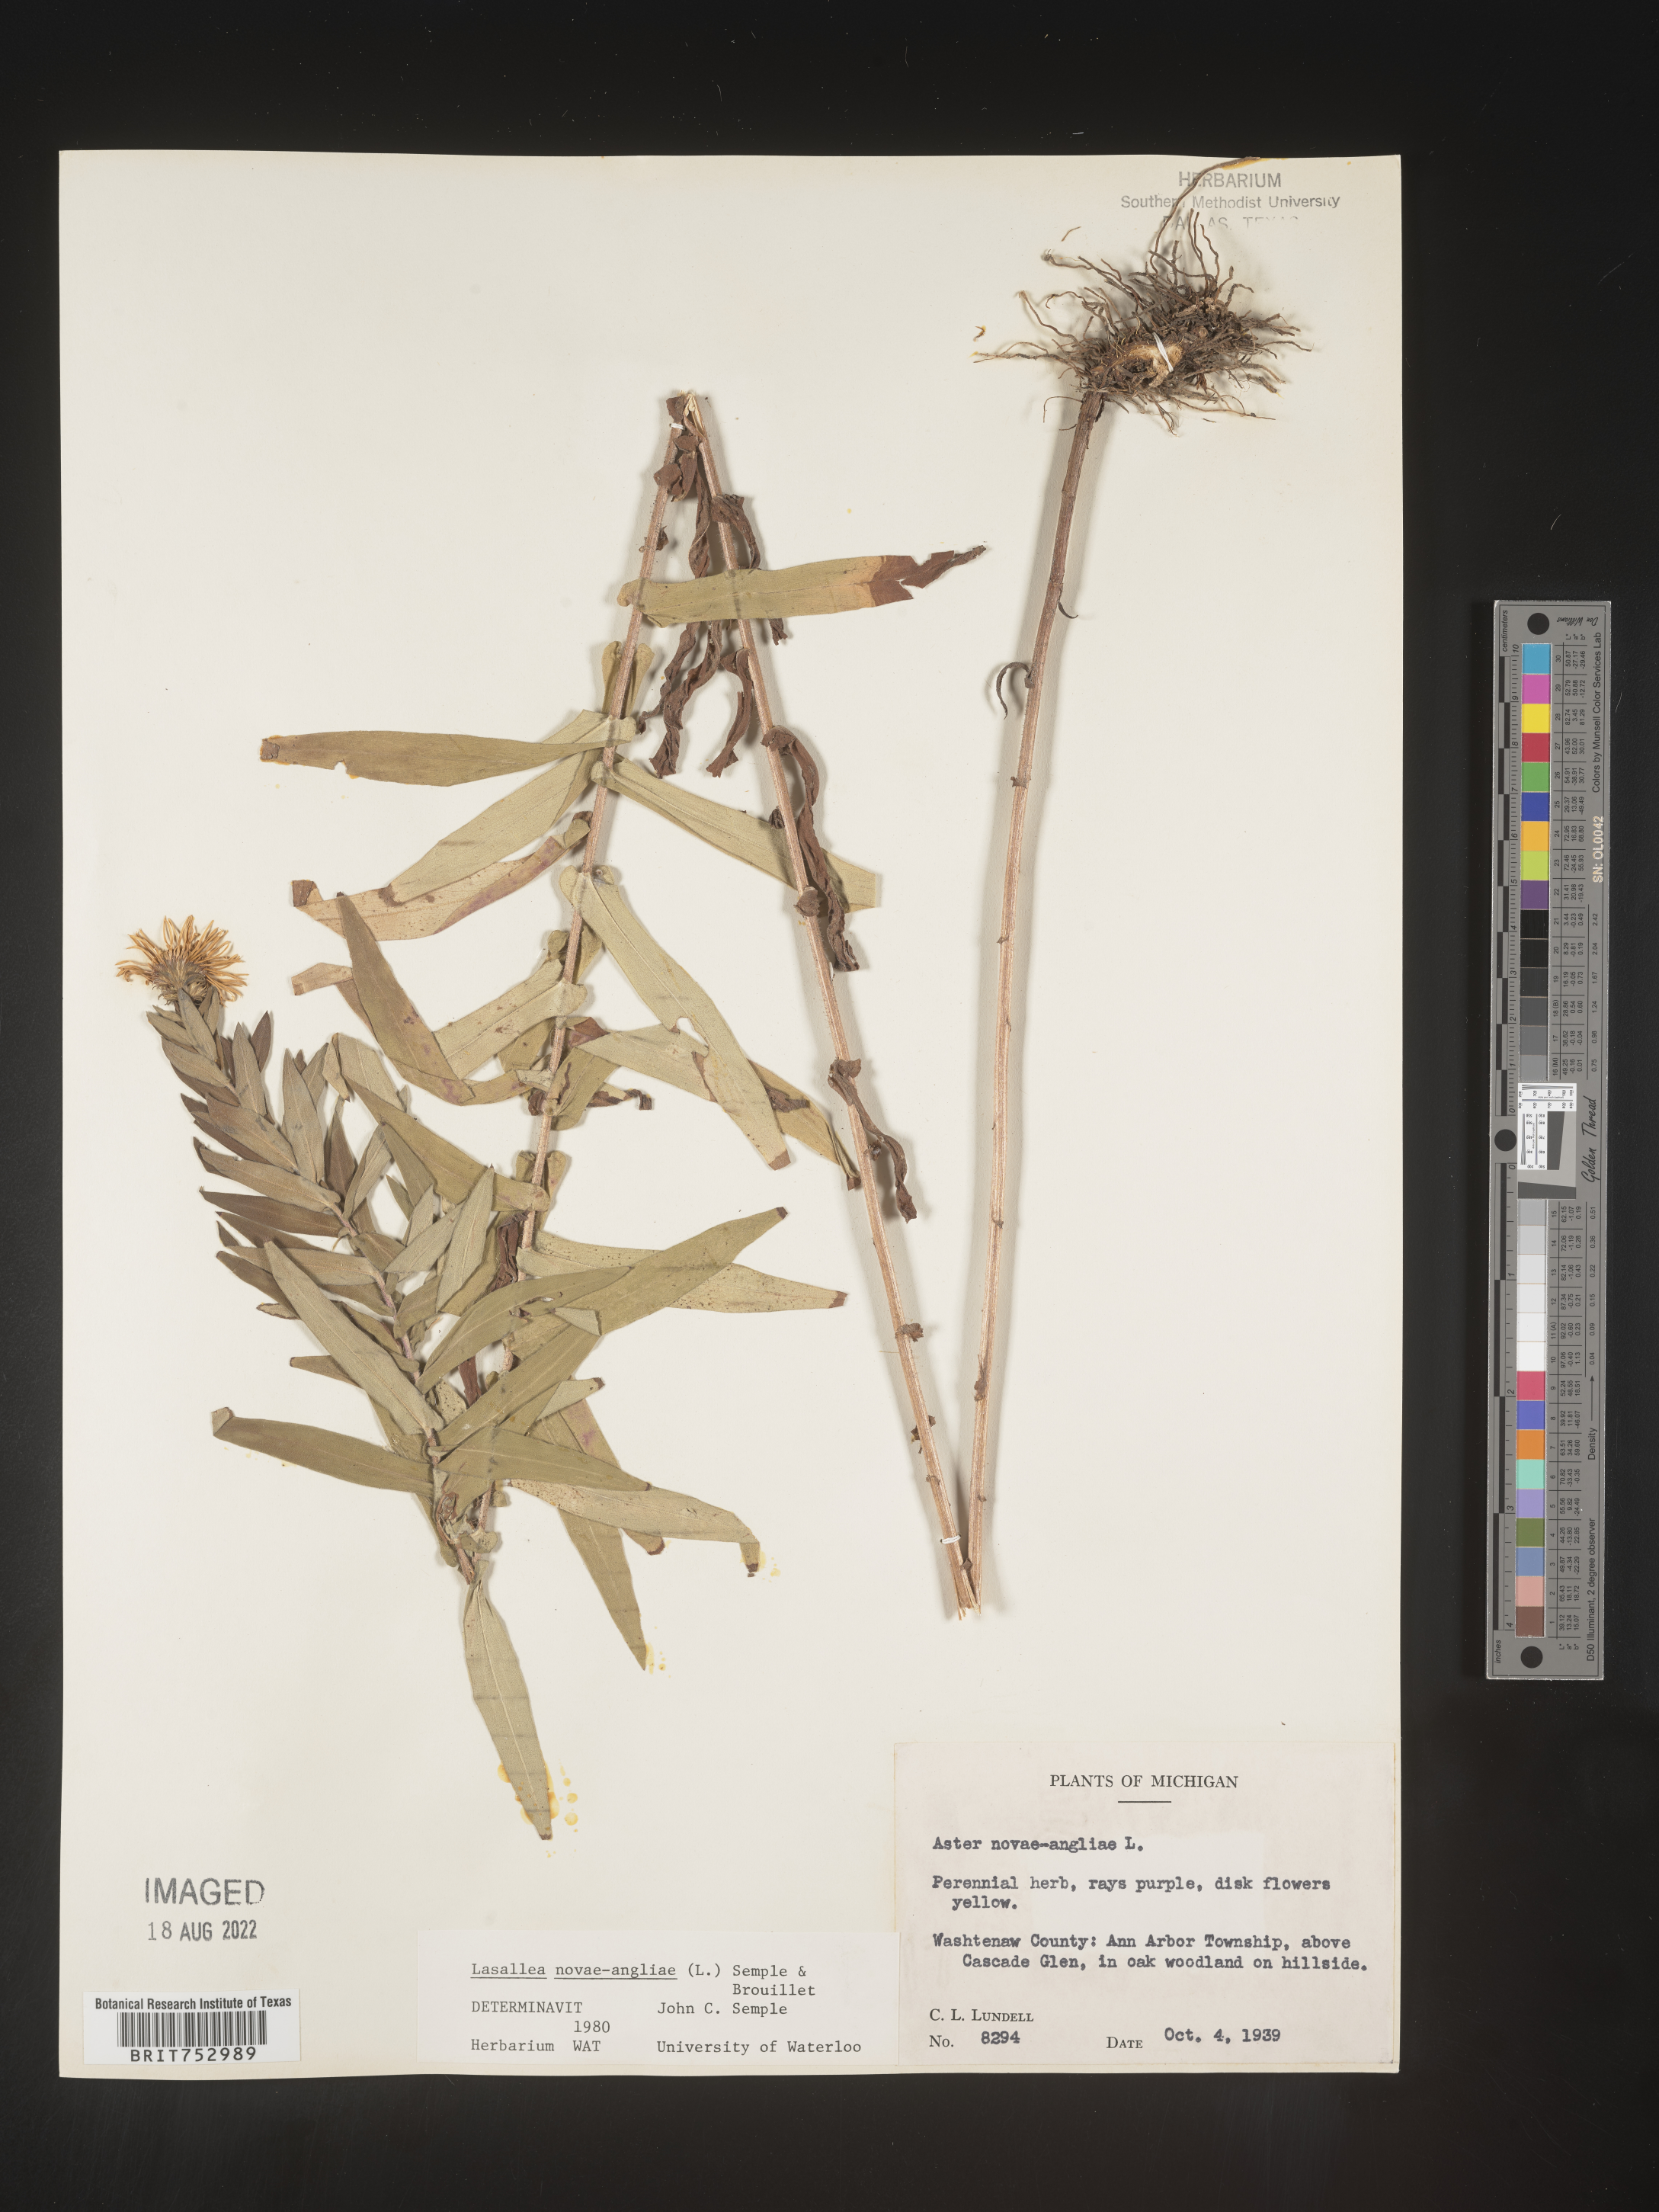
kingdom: Plantae
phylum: Tracheophyta
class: Magnoliopsida
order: Asterales
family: Asteraceae
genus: Symphyotrichum
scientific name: Symphyotrichum novae-angliae
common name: Michaelmas daisy
